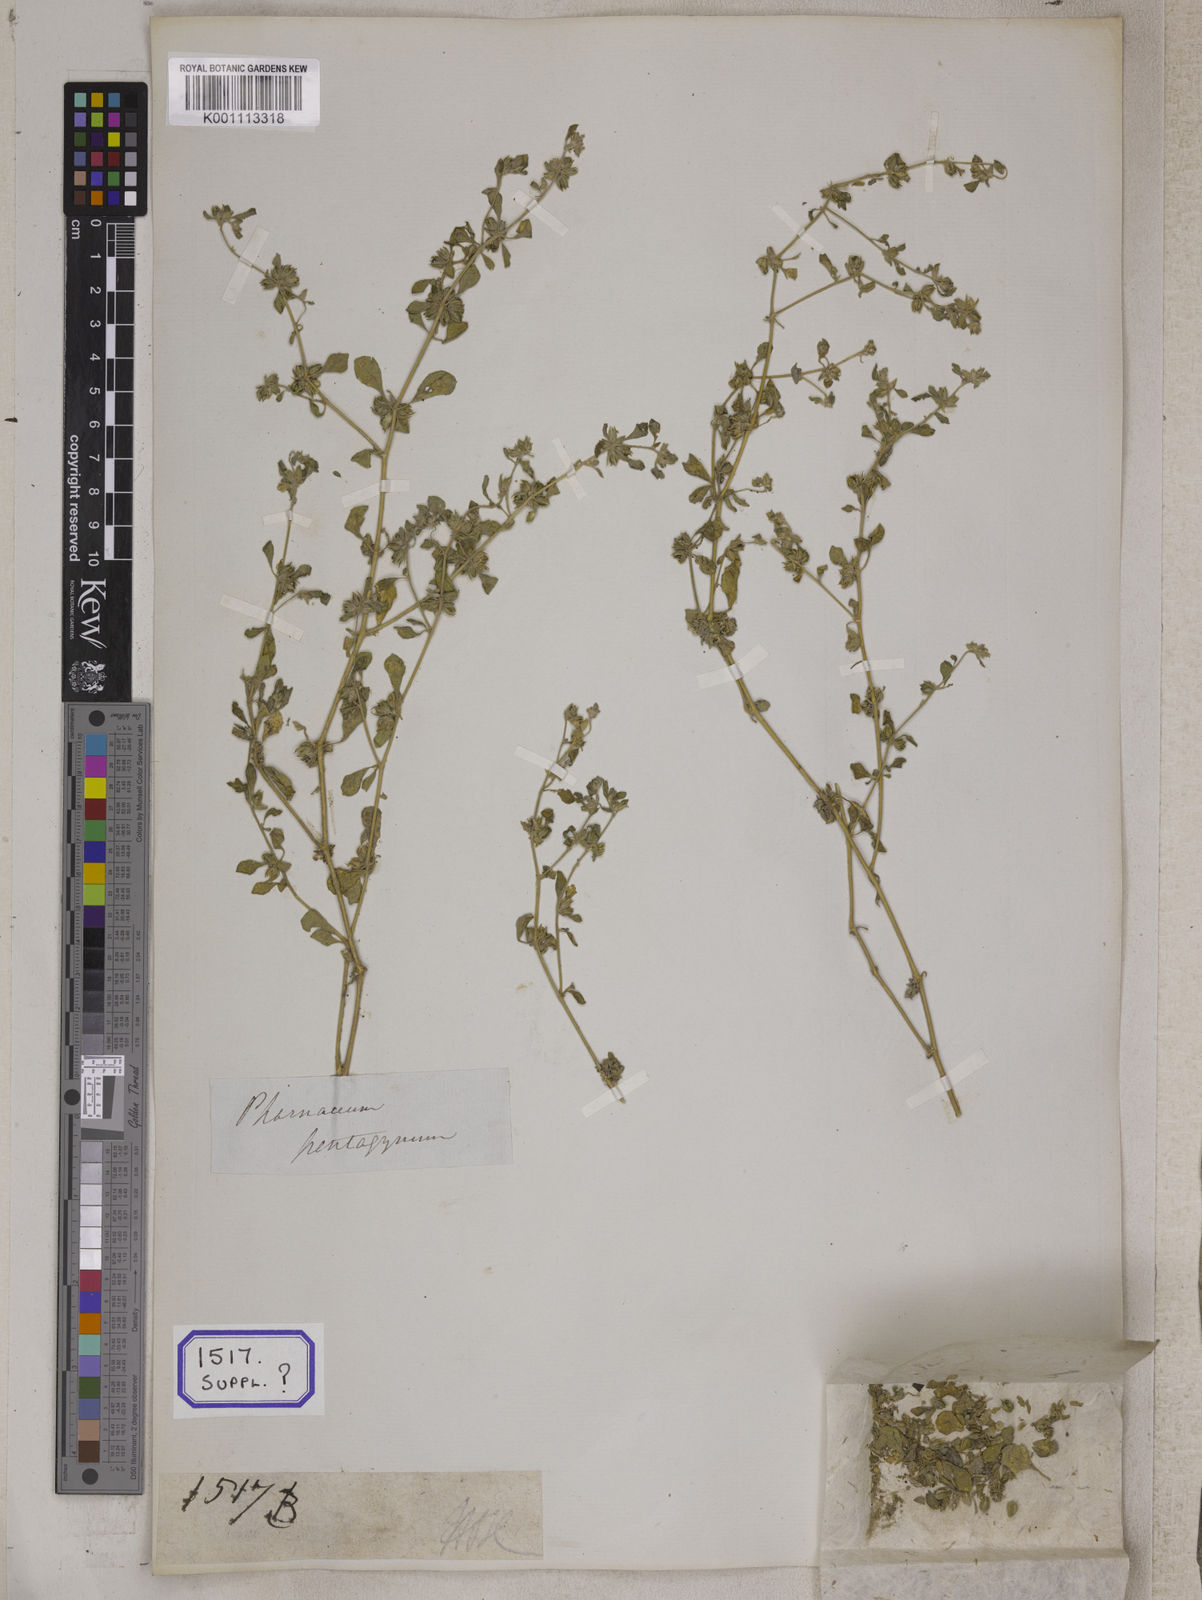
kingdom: Plantae
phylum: Tracheophyta
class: Magnoliopsida
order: Caryophyllales
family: Molluginaceae
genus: Glinus
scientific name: Glinus lotoides
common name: Lotus sweetjuice
